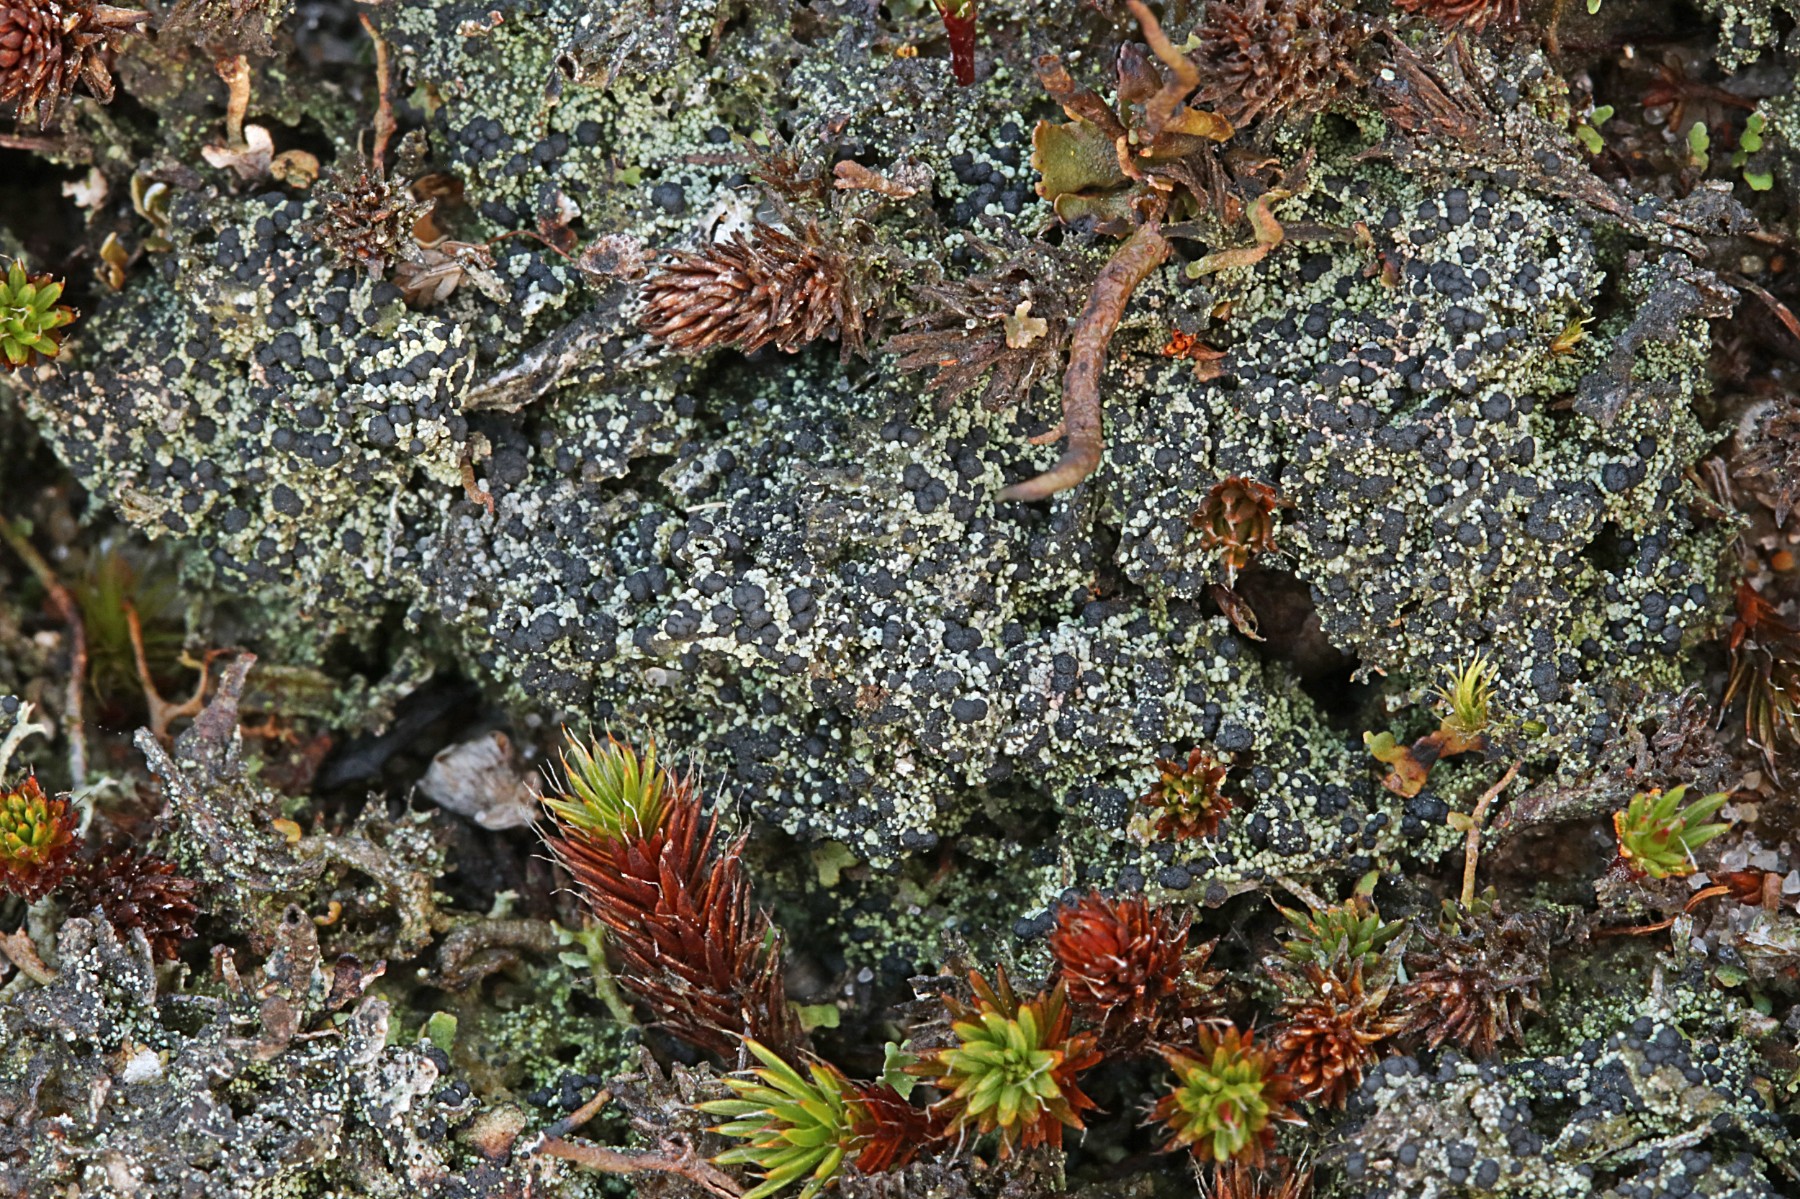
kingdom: Fungi
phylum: Ascomycota
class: Lecanoromycetes
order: Lecanorales
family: Byssolomataceae
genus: Micarea
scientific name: Micarea lignaria
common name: tørve-knaplav
